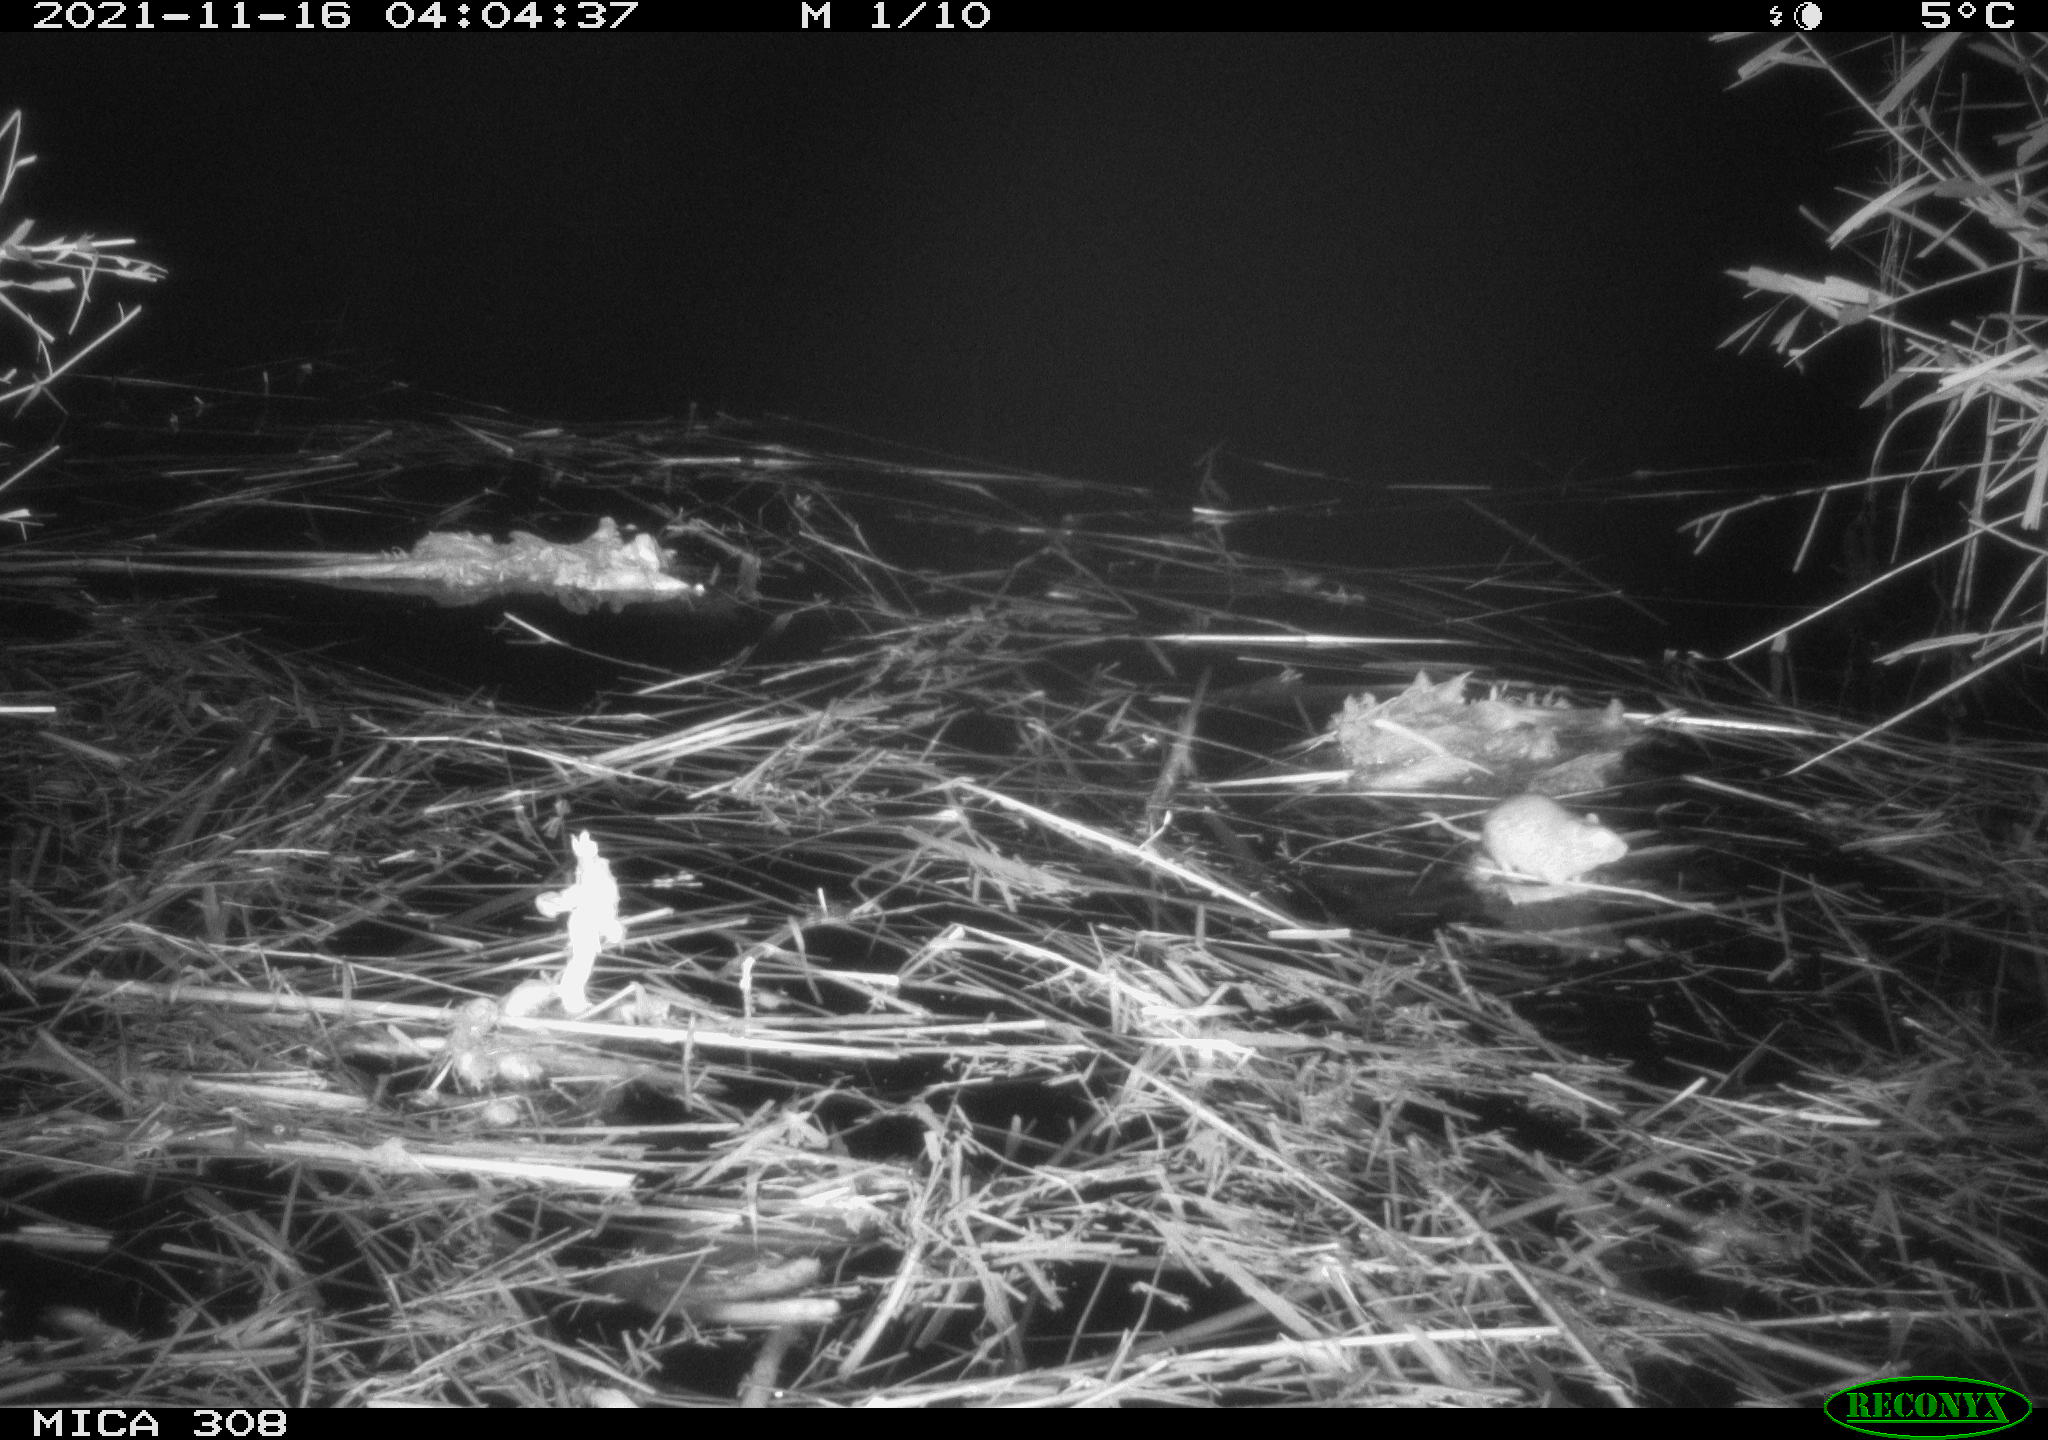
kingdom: Animalia
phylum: Chordata
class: Mammalia
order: Rodentia
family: Muridae
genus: Rattus
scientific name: Rattus norvegicus
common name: Brown rat
